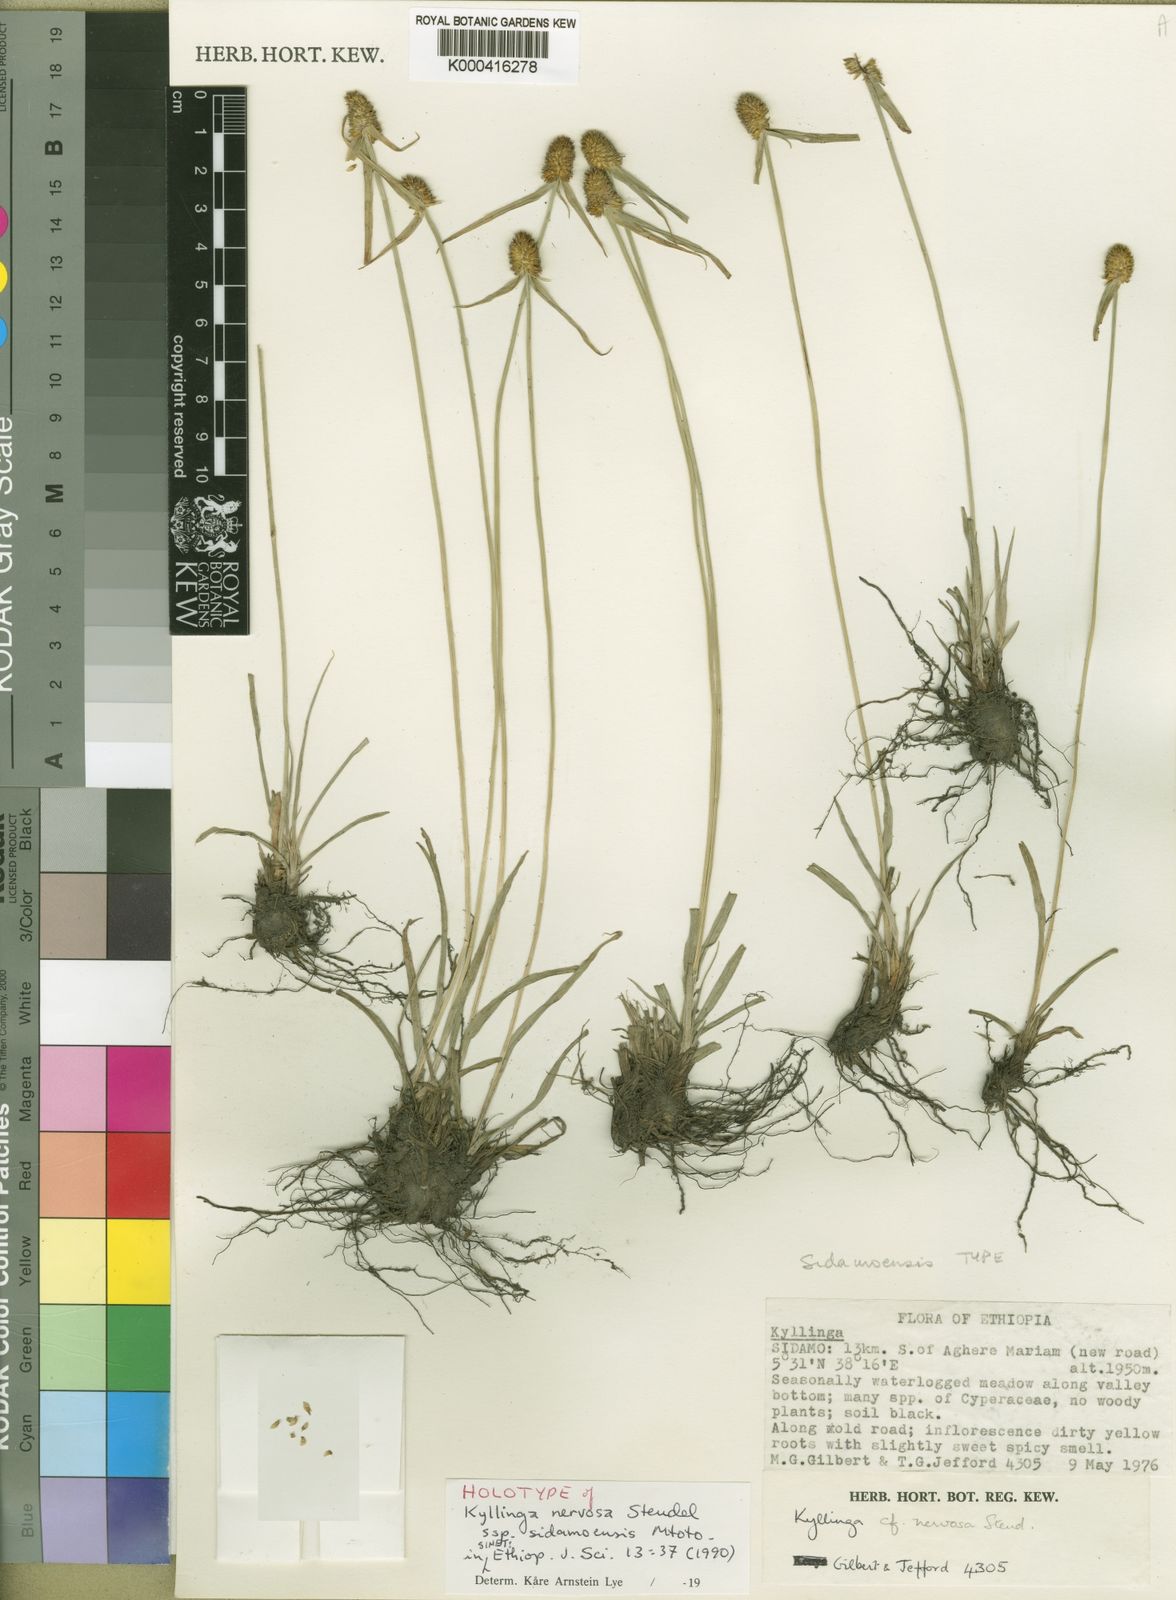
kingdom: Plantae
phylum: Tracheophyta
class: Liliopsida
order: Poales
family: Cyperaceae
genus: Cyperus
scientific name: Cyperus costatus
